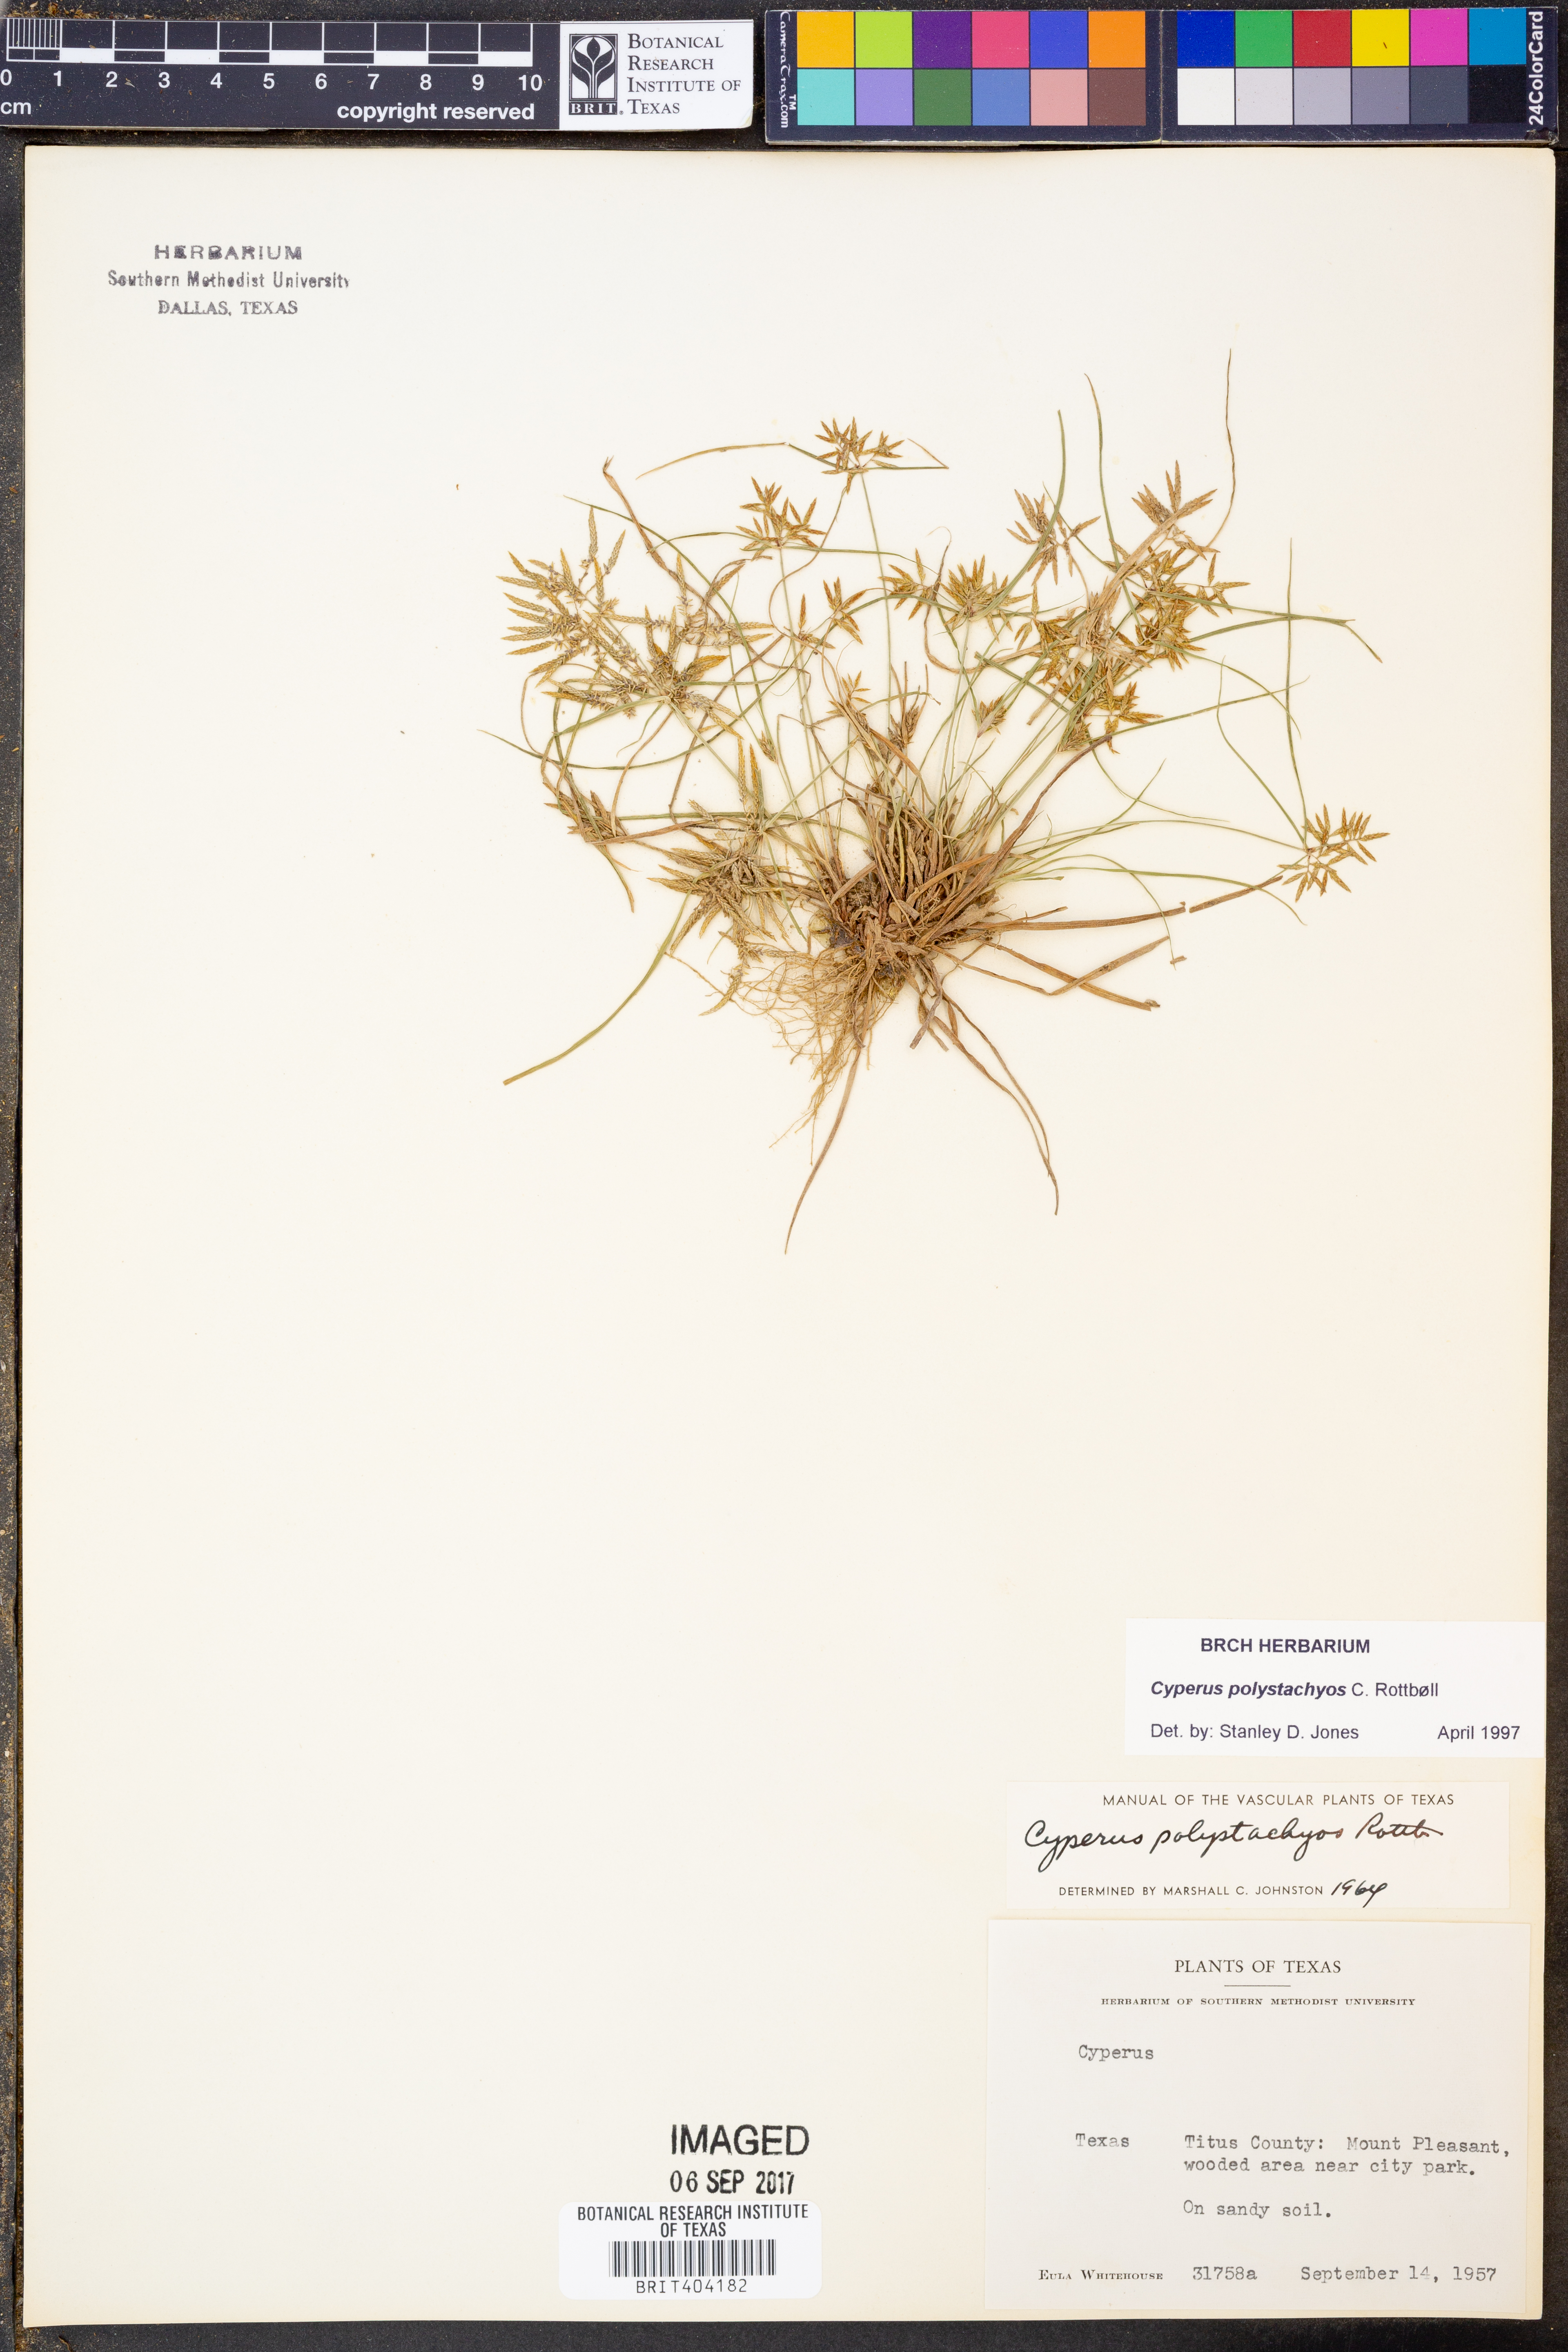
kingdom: Plantae
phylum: Tracheophyta
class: Liliopsida
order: Poales
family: Cyperaceae
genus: Cyperus
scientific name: Cyperus polystachyos
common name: Bunchy flat sedge
